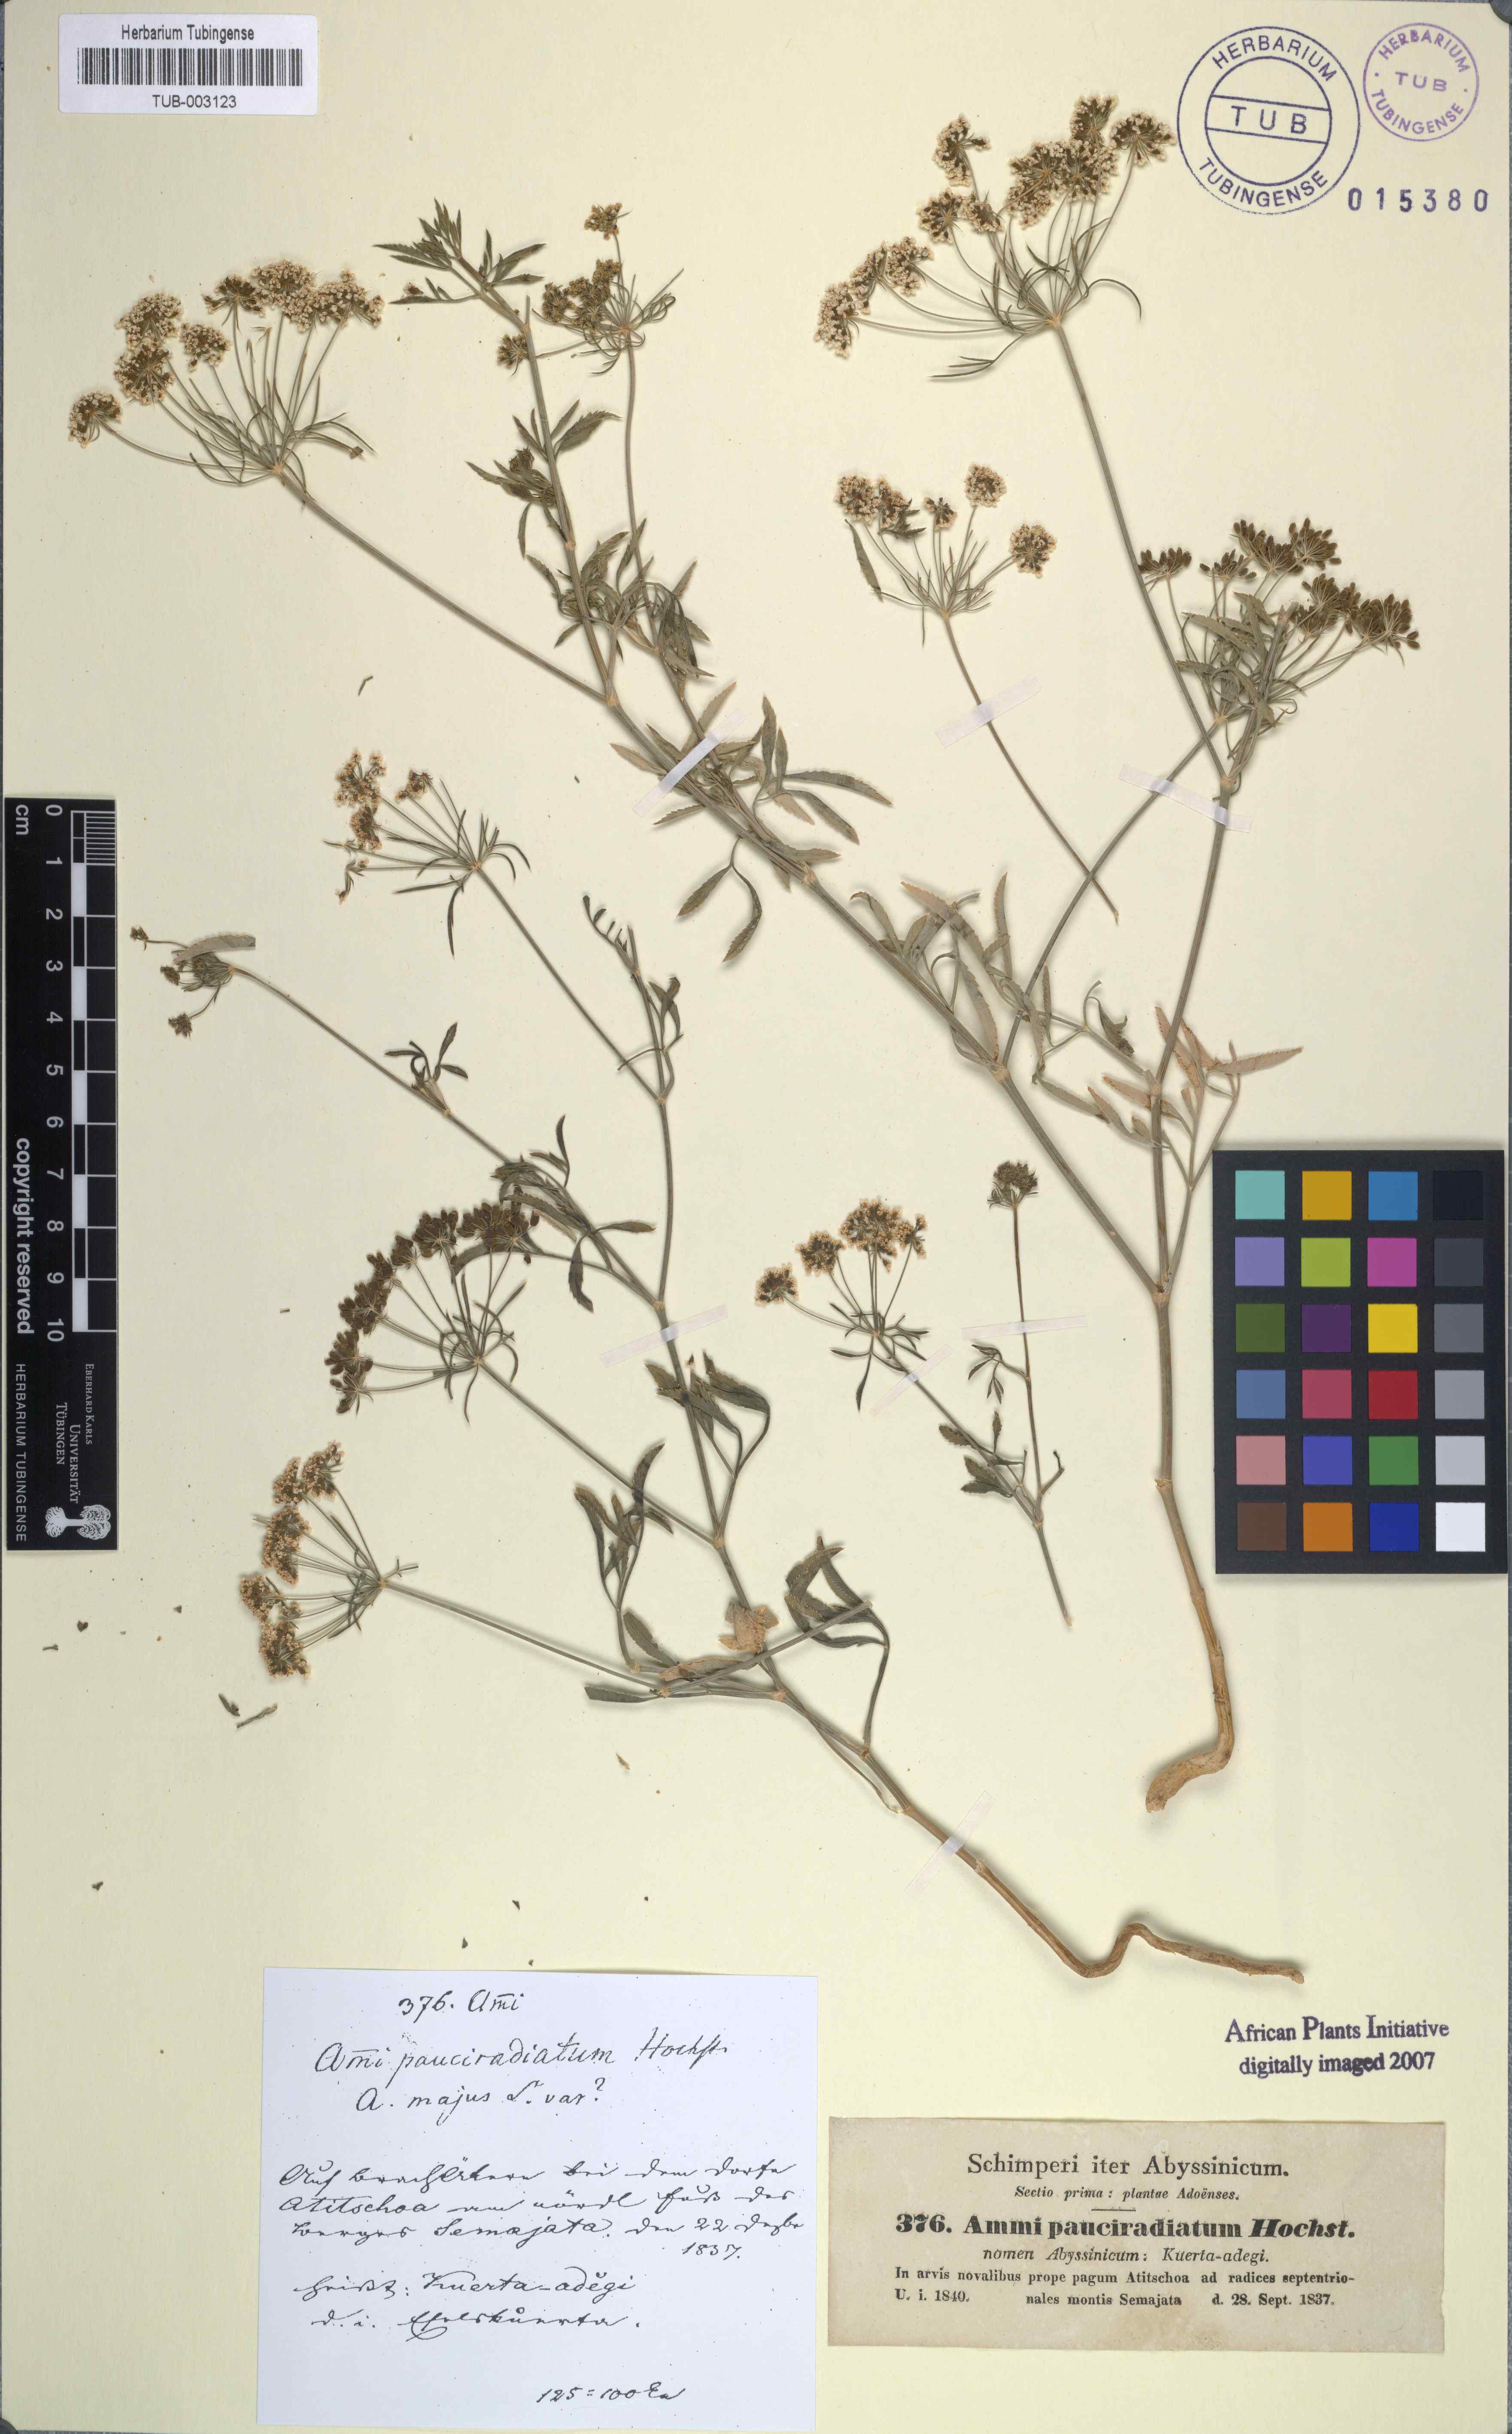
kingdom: Plantae
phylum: Tracheophyta
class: Magnoliopsida
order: Apiales
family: Apiaceae
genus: Ammi
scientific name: Ammi majus
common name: Bullwort
